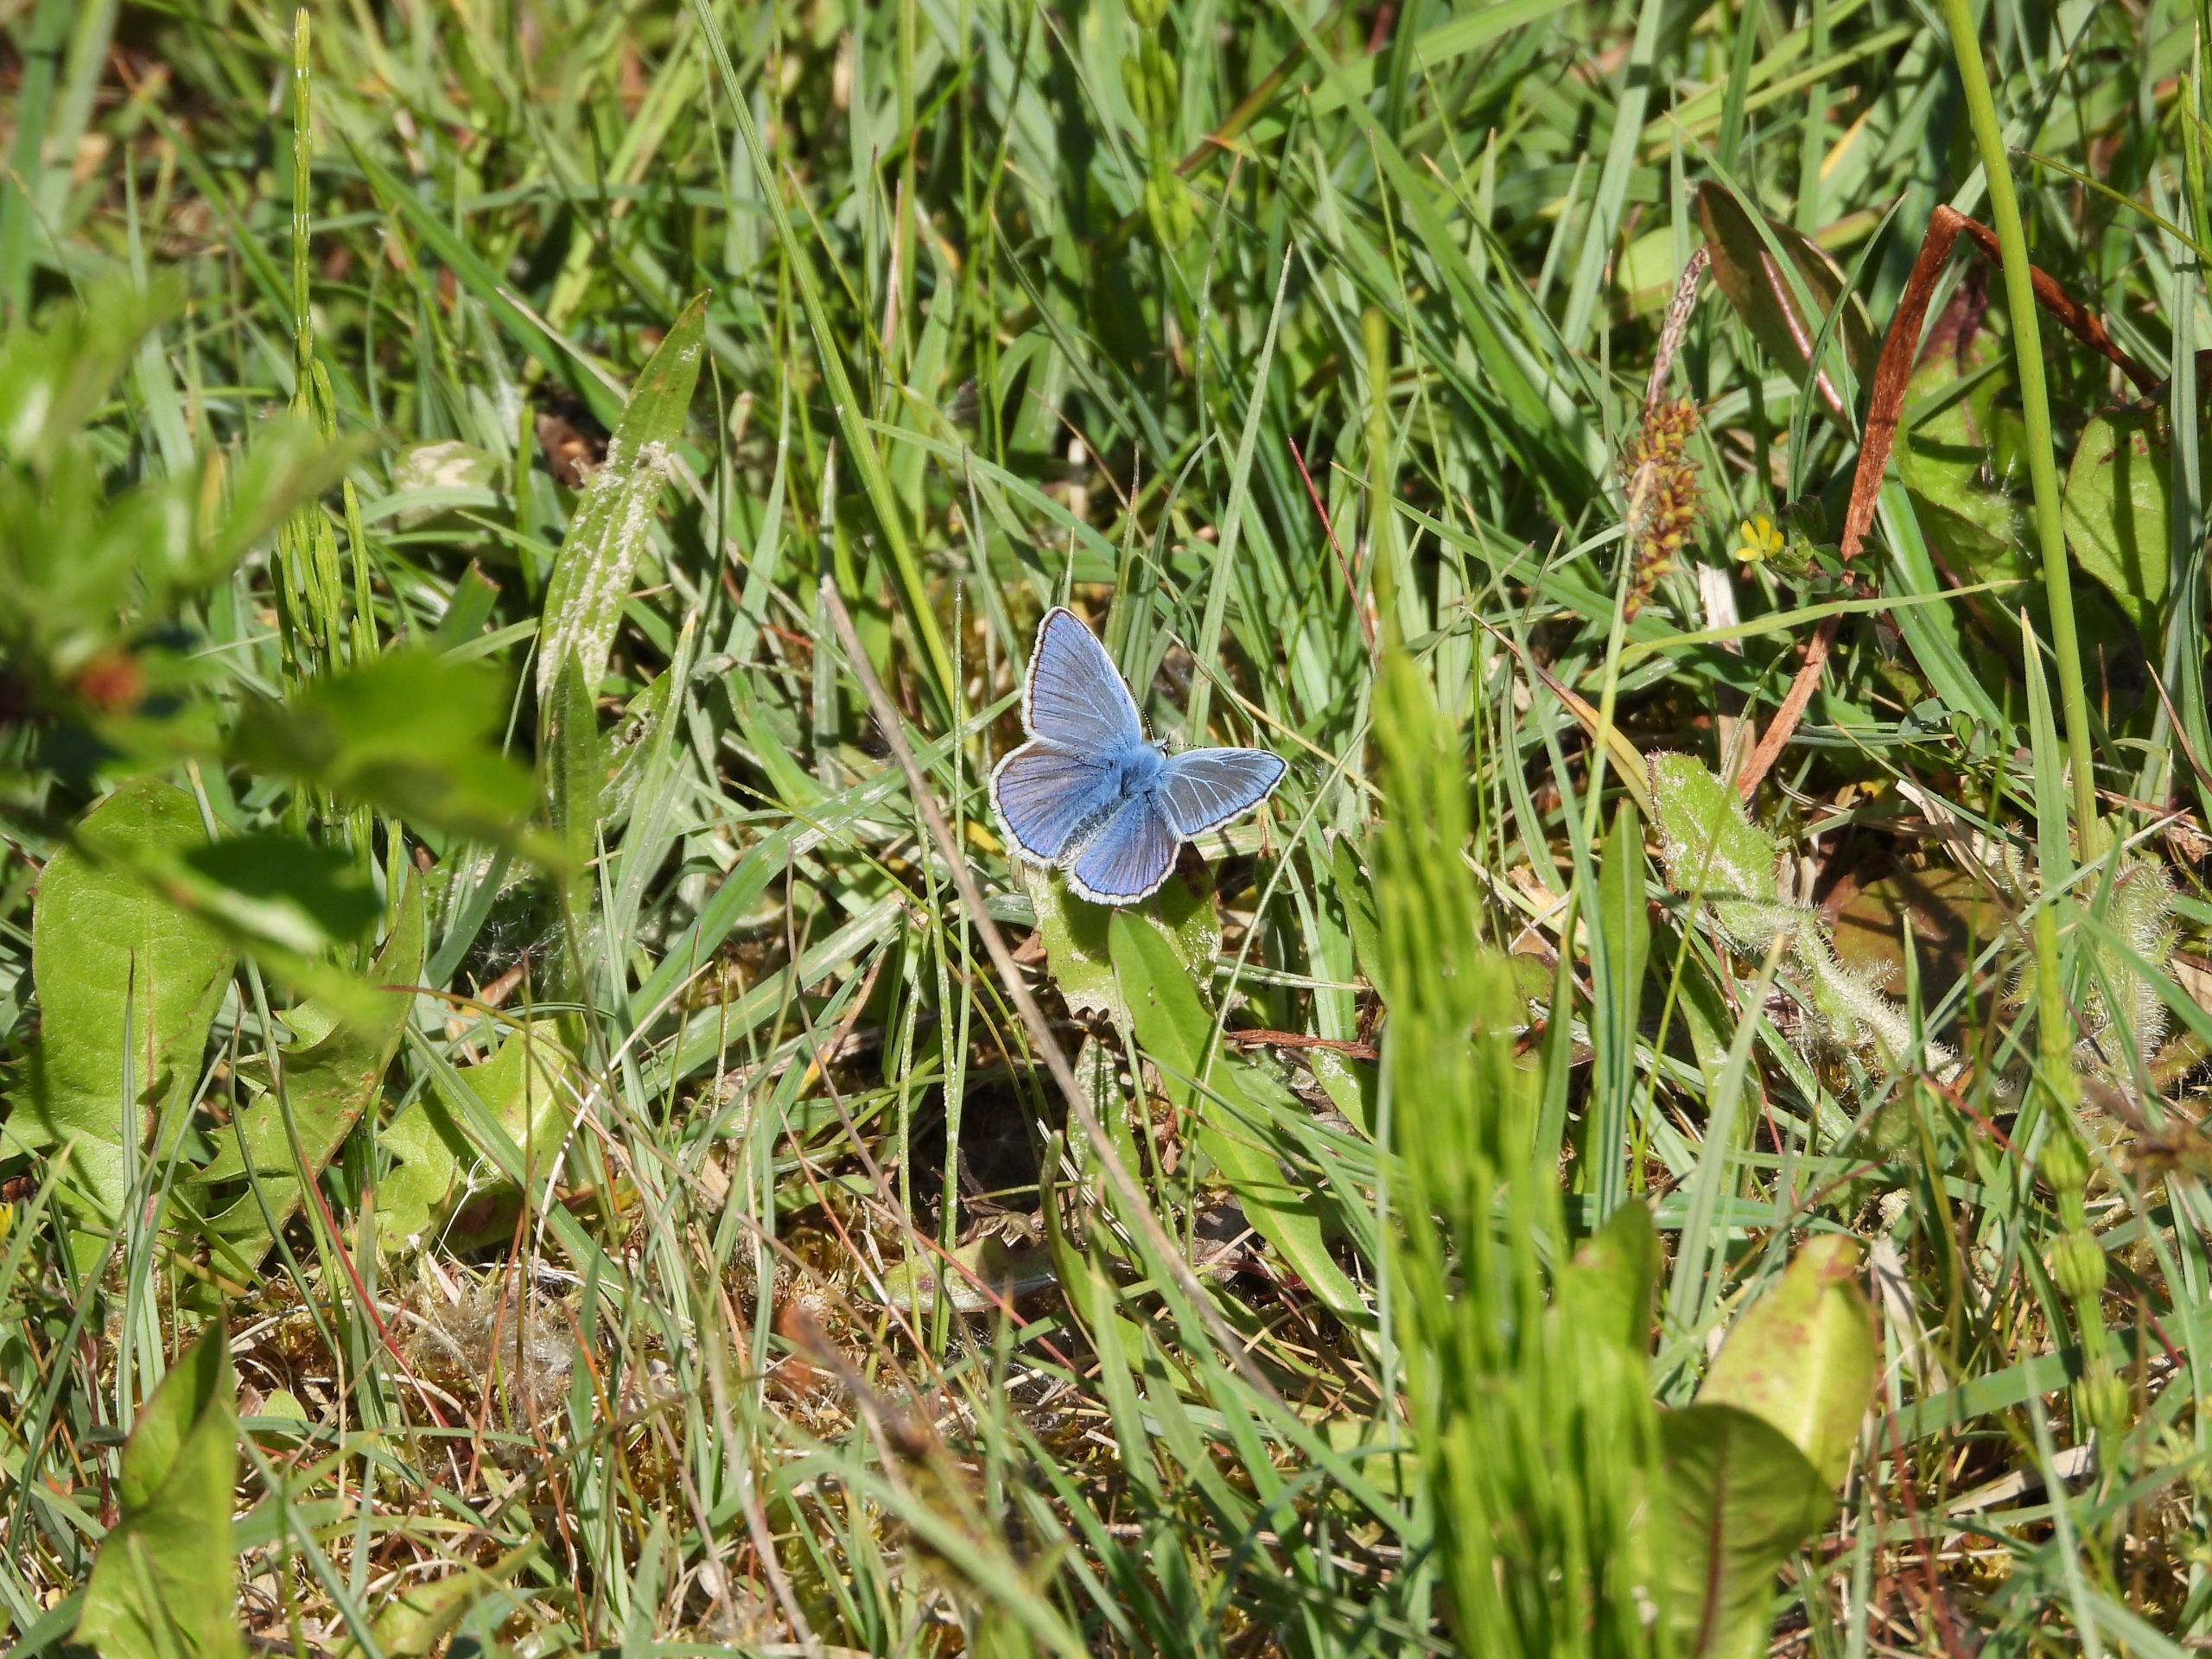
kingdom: Animalia
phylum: Arthropoda
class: Insecta
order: Lepidoptera
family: Lycaenidae
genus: Polyommatus
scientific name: Polyommatus icarus
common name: Almindelig blåfugl
